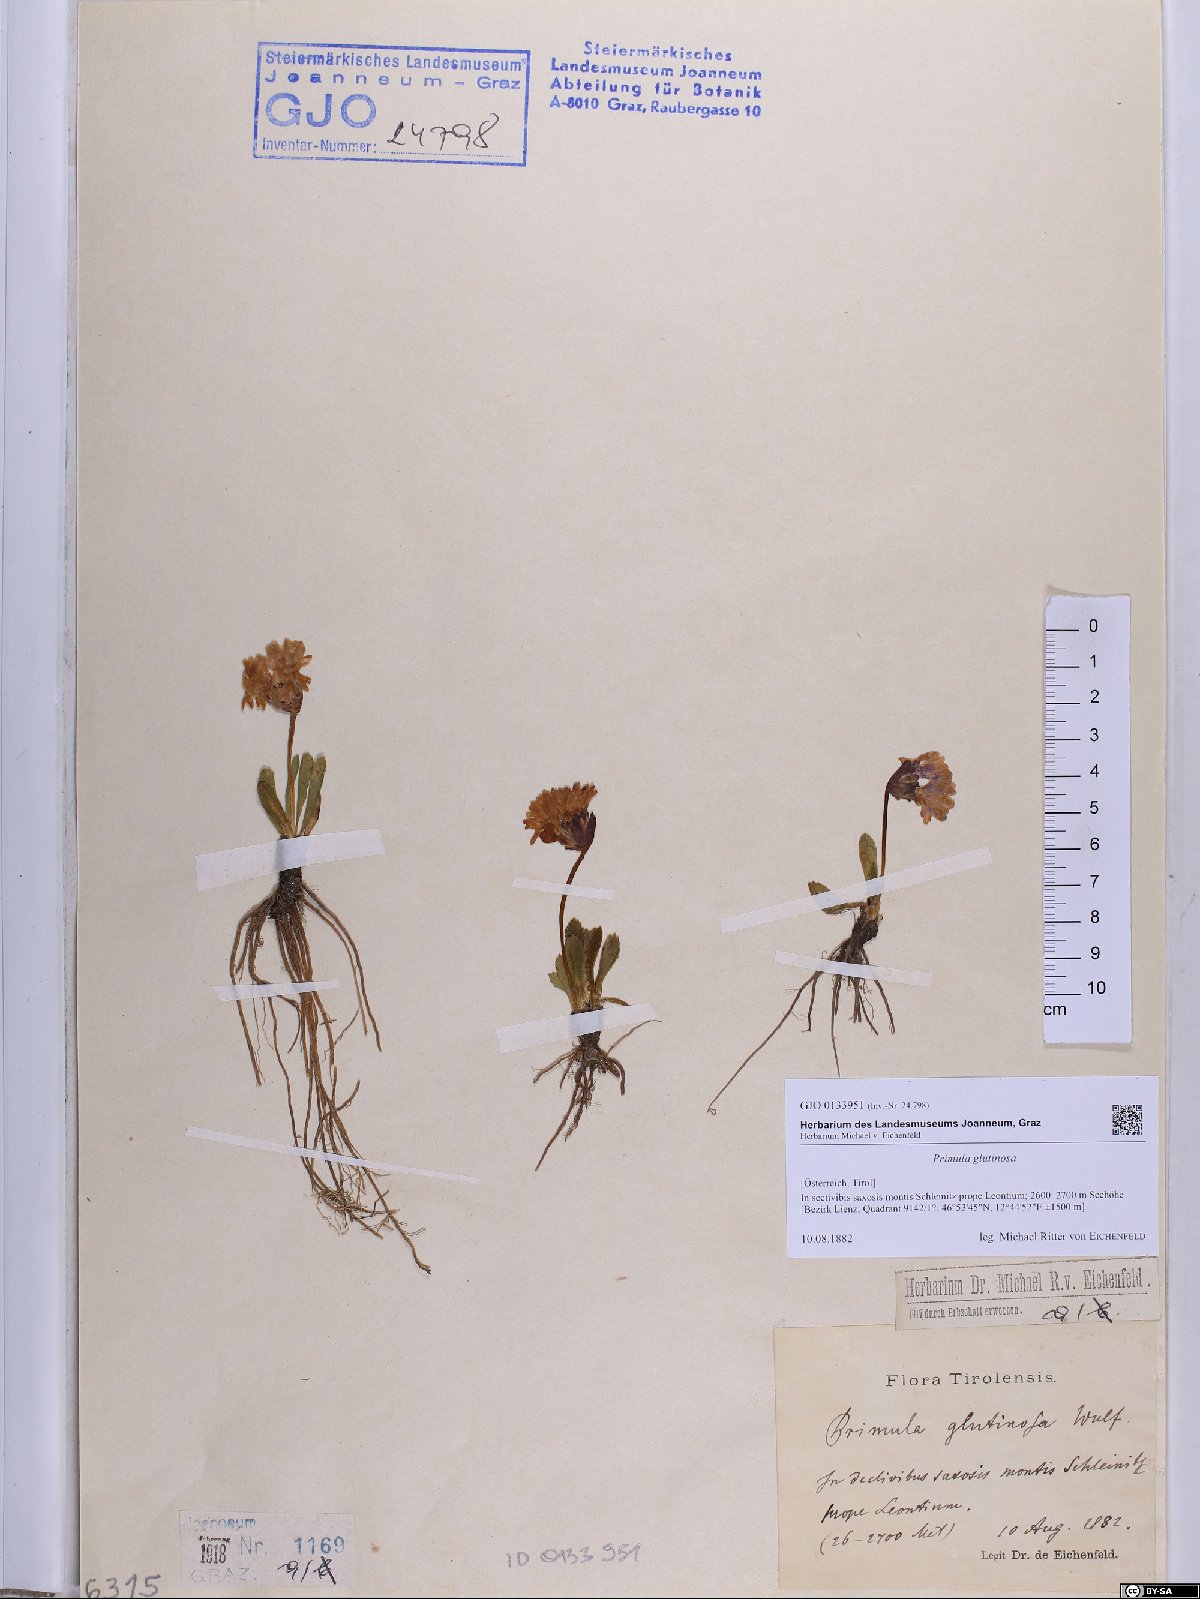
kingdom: Plantae
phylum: Tracheophyta
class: Magnoliopsida
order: Ericales
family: Primulaceae
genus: Primula
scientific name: Primula glutinosa
